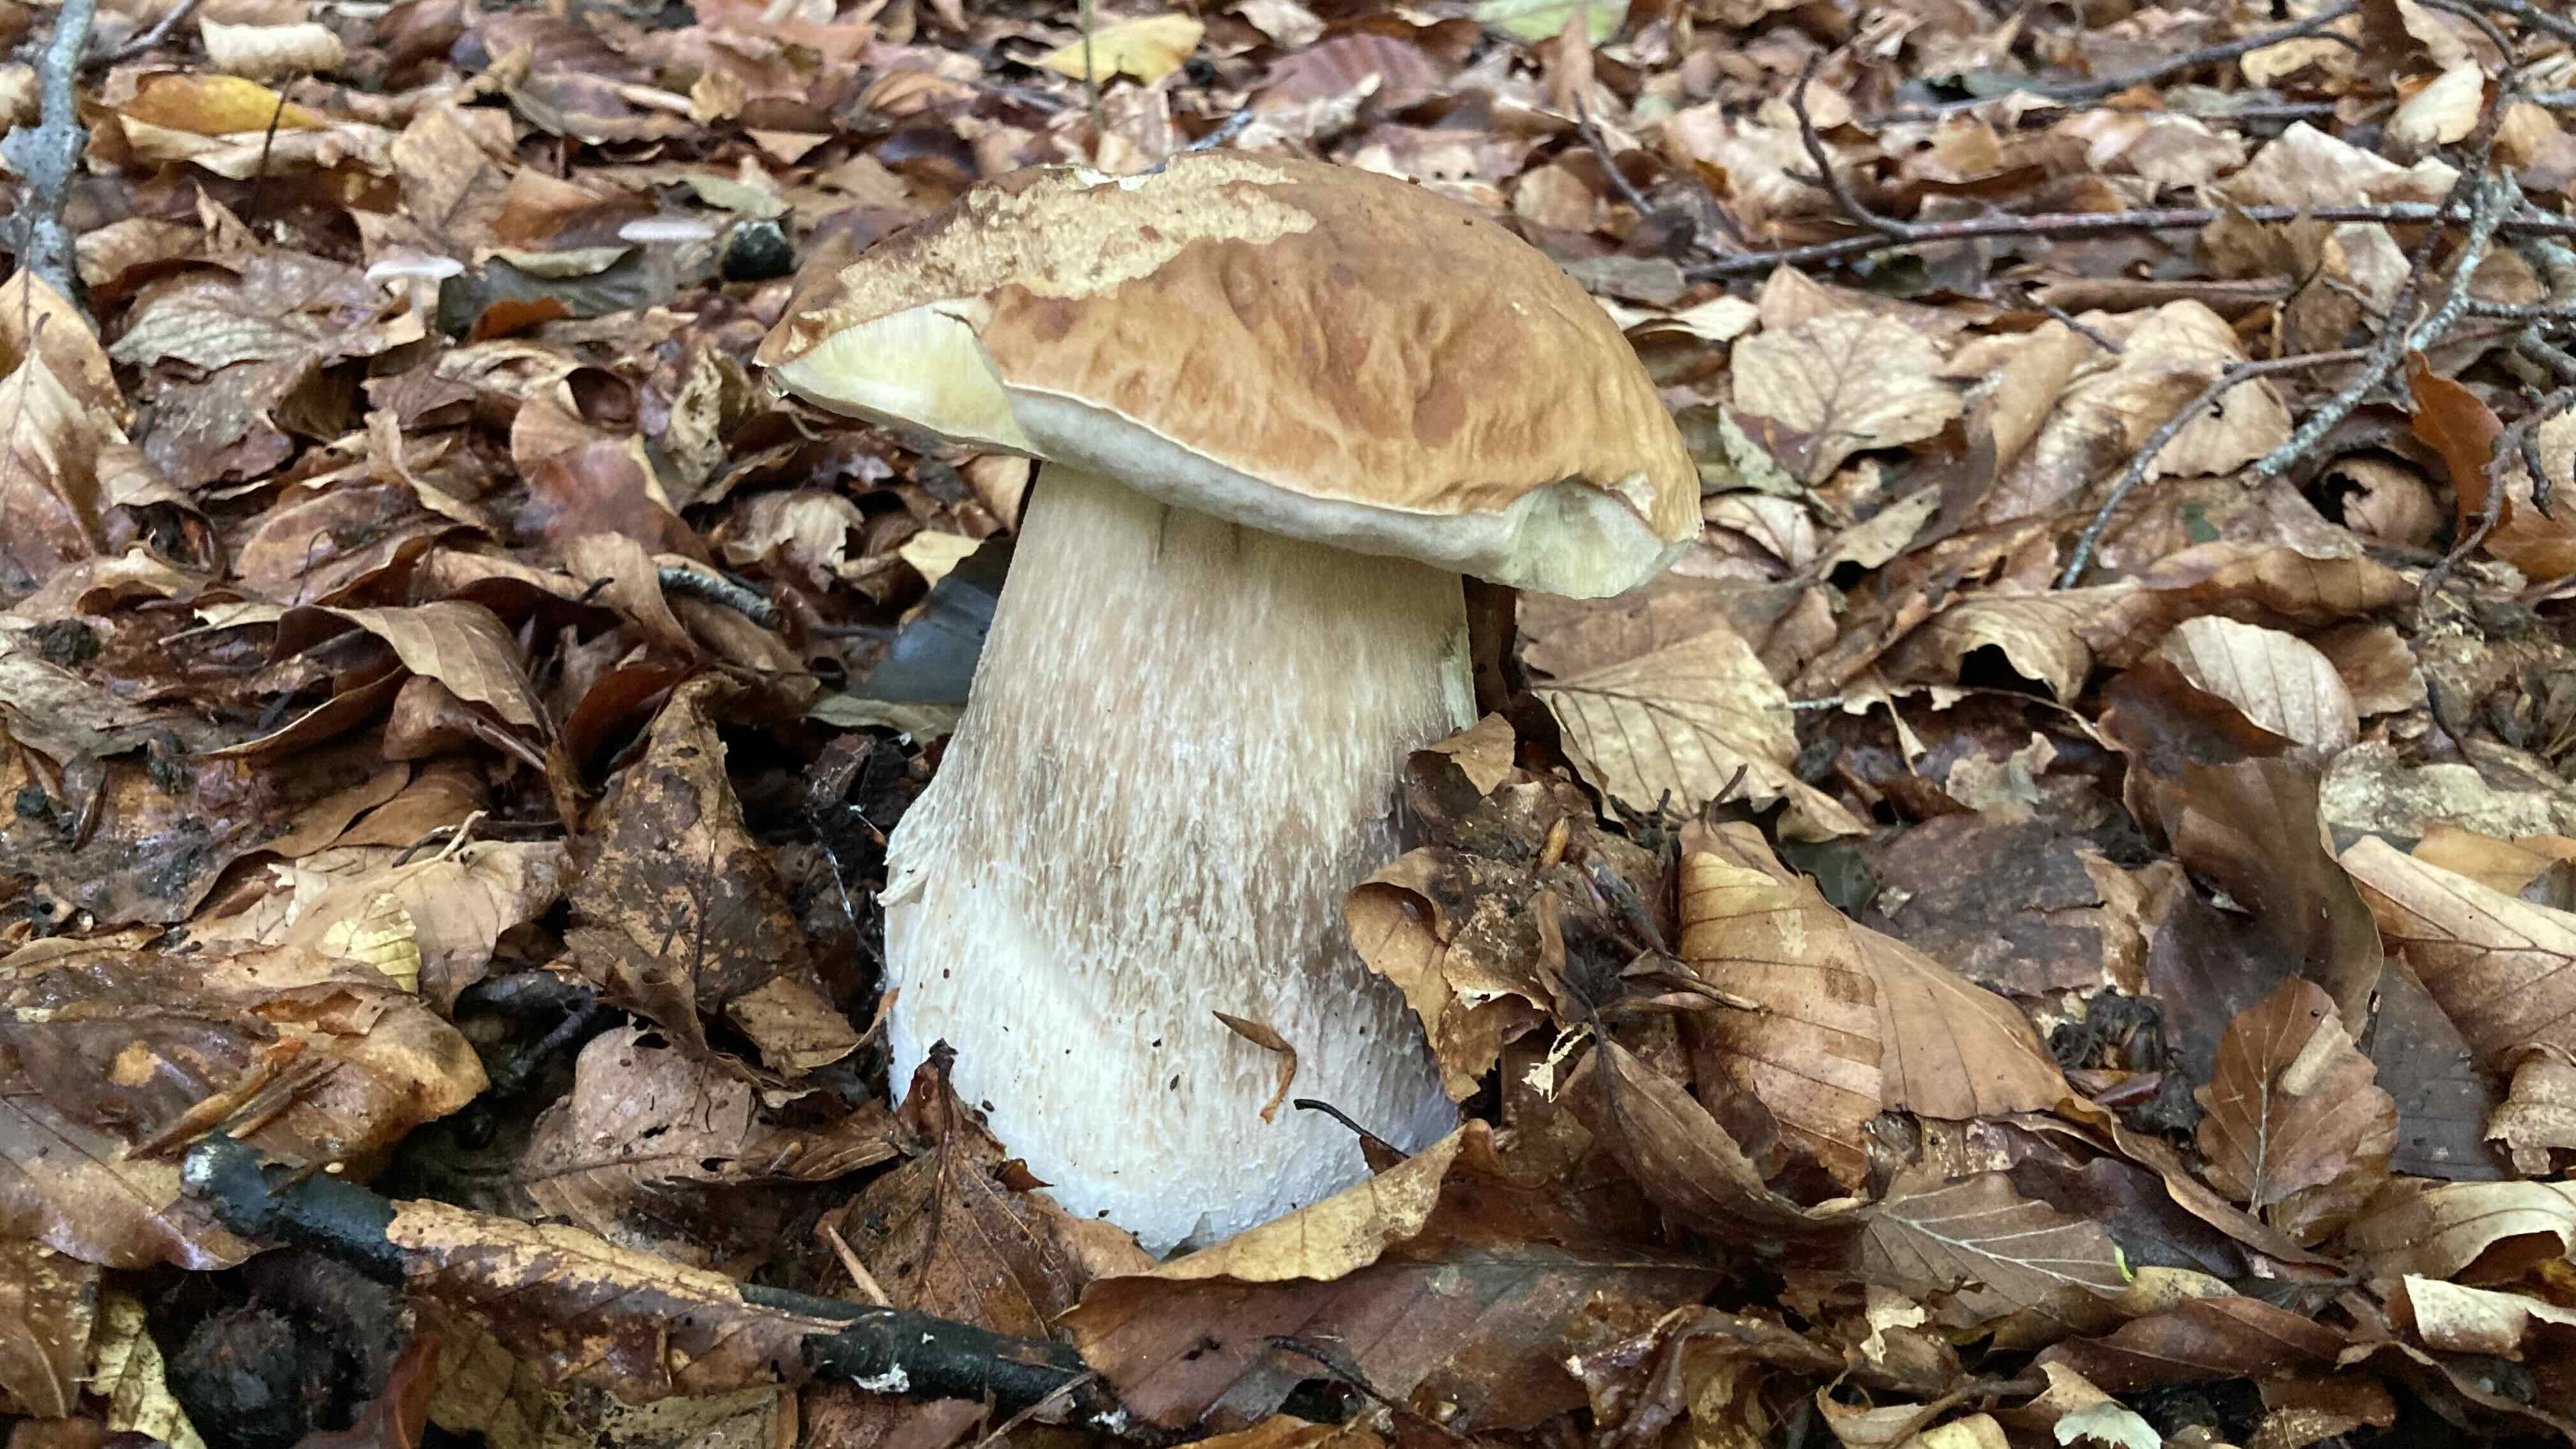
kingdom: Fungi
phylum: Basidiomycota
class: Agaricomycetes
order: Boletales
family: Boletaceae
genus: Boletus
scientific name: Boletus edulis
